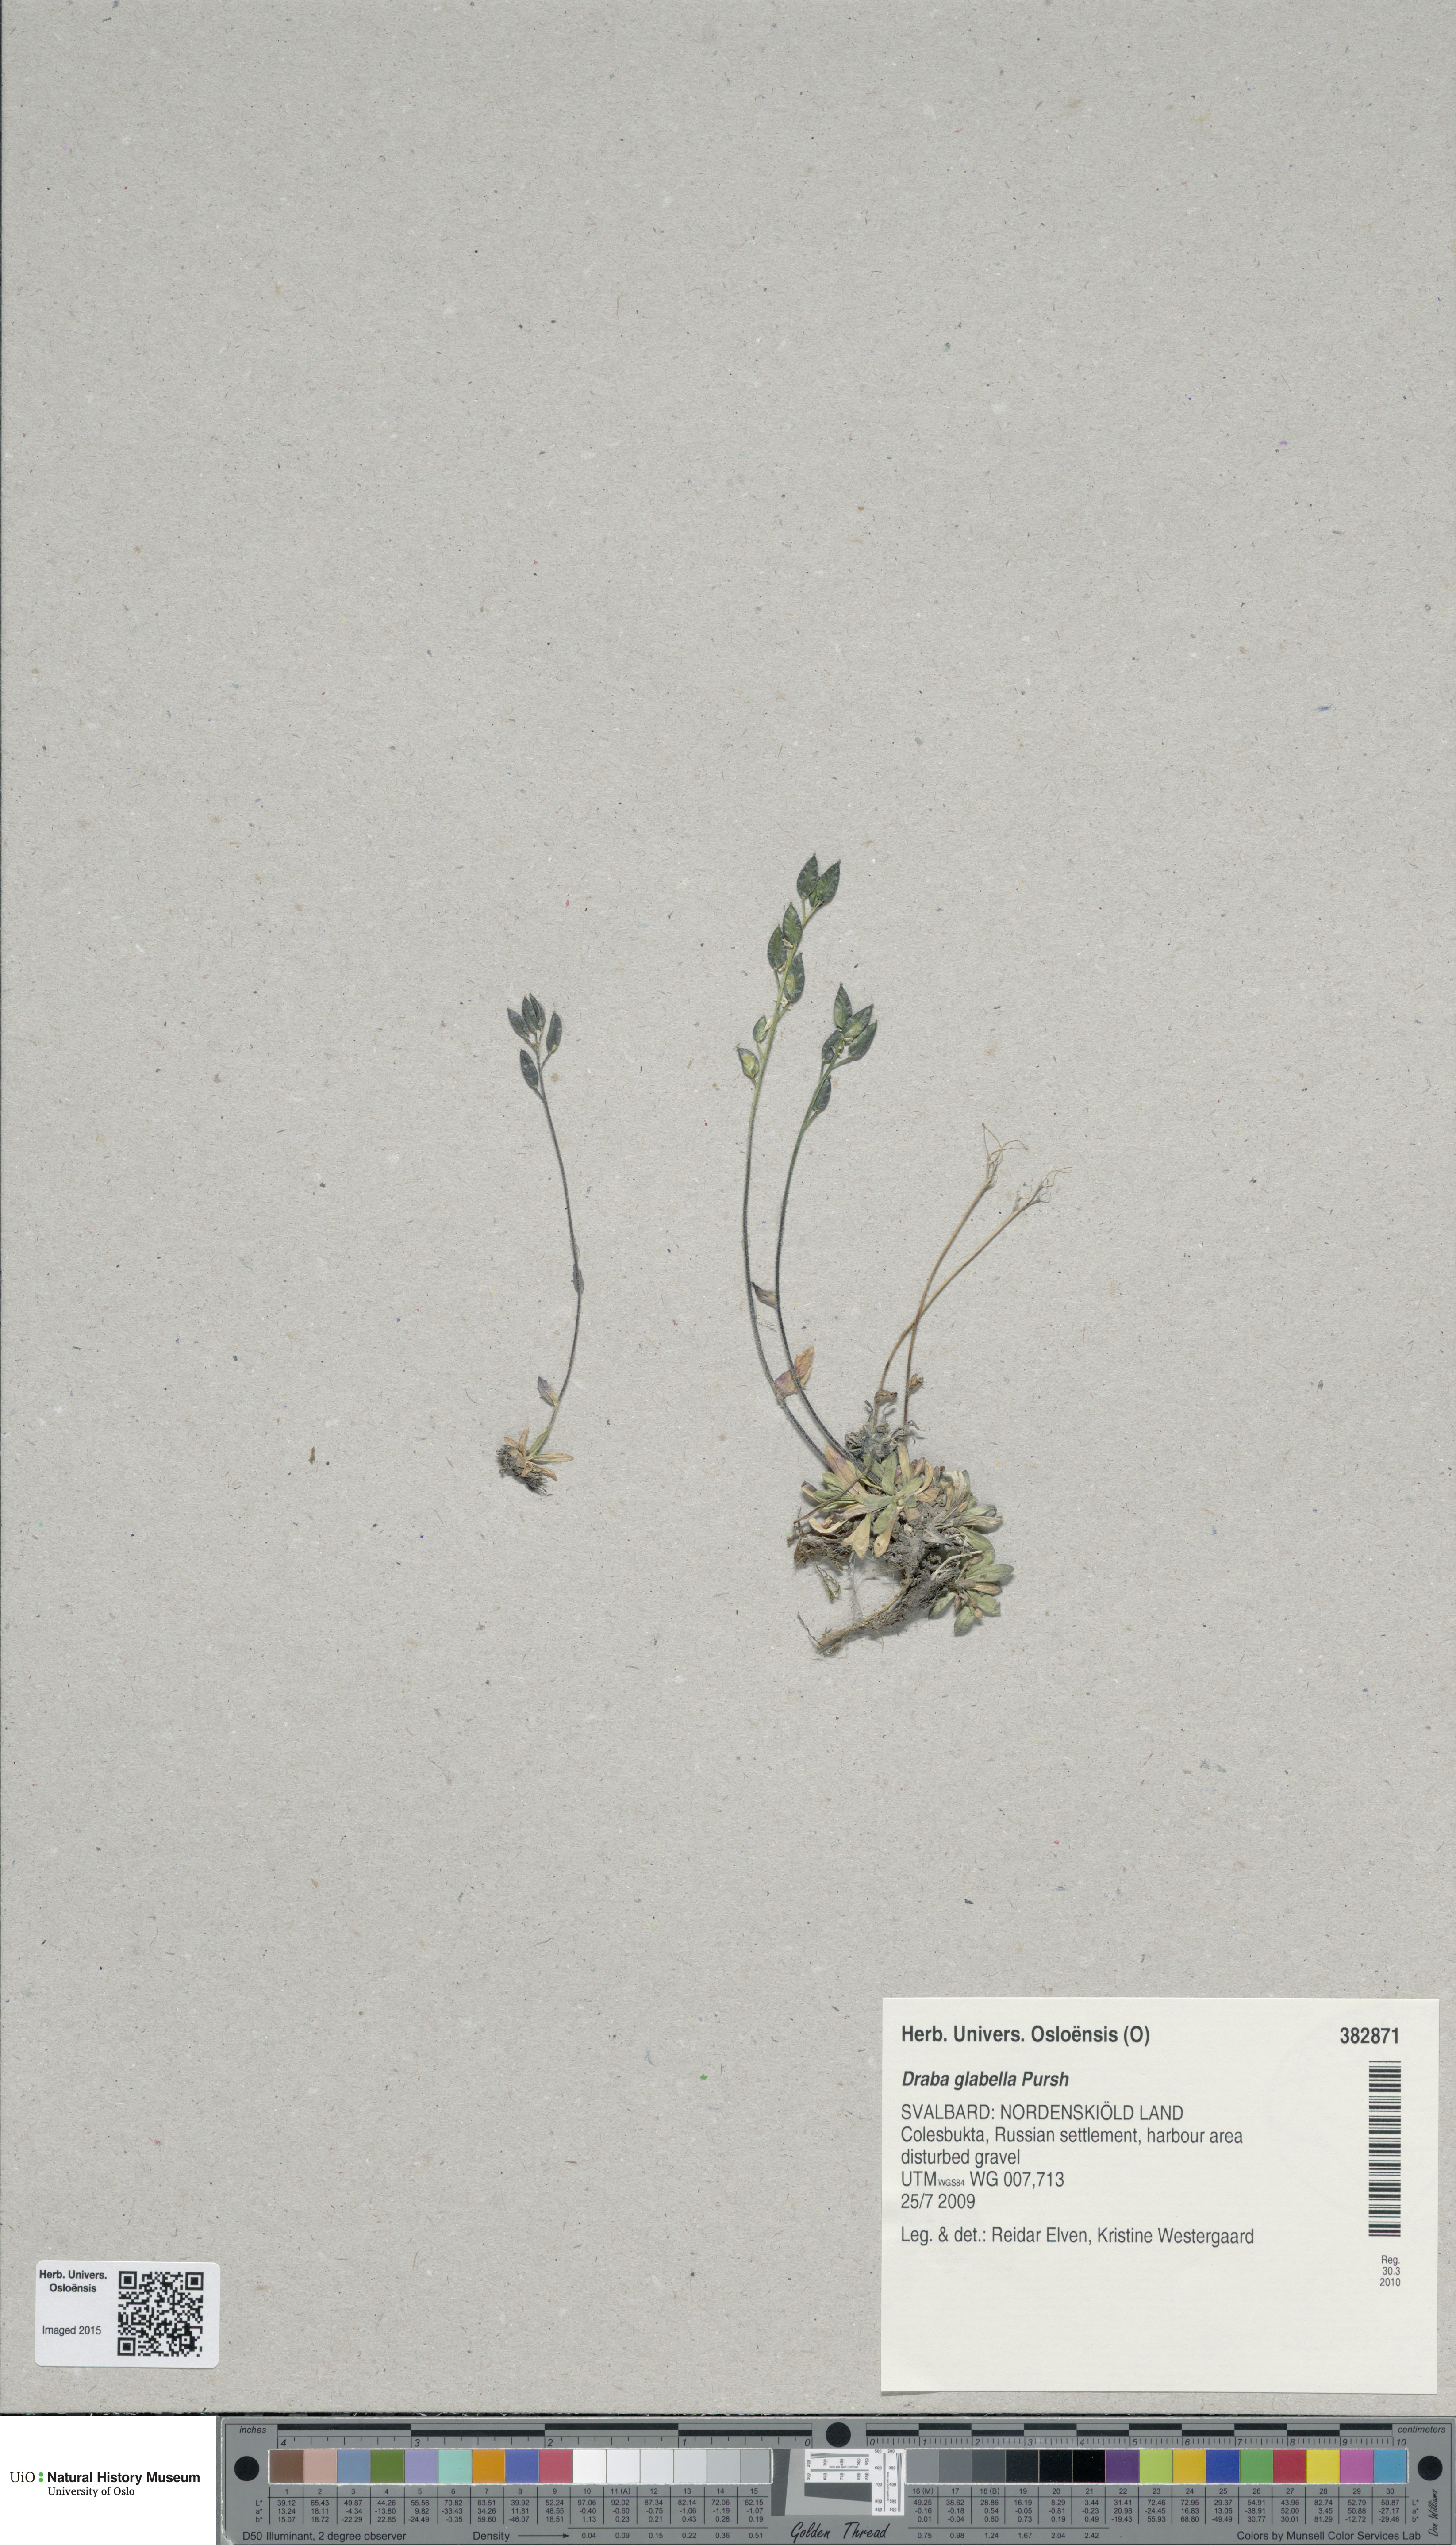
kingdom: Plantae
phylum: Tracheophyta
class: Magnoliopsida
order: Brassicales
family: Brassicaceae
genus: Draba
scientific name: Draba glabella
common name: Glaucous draba
